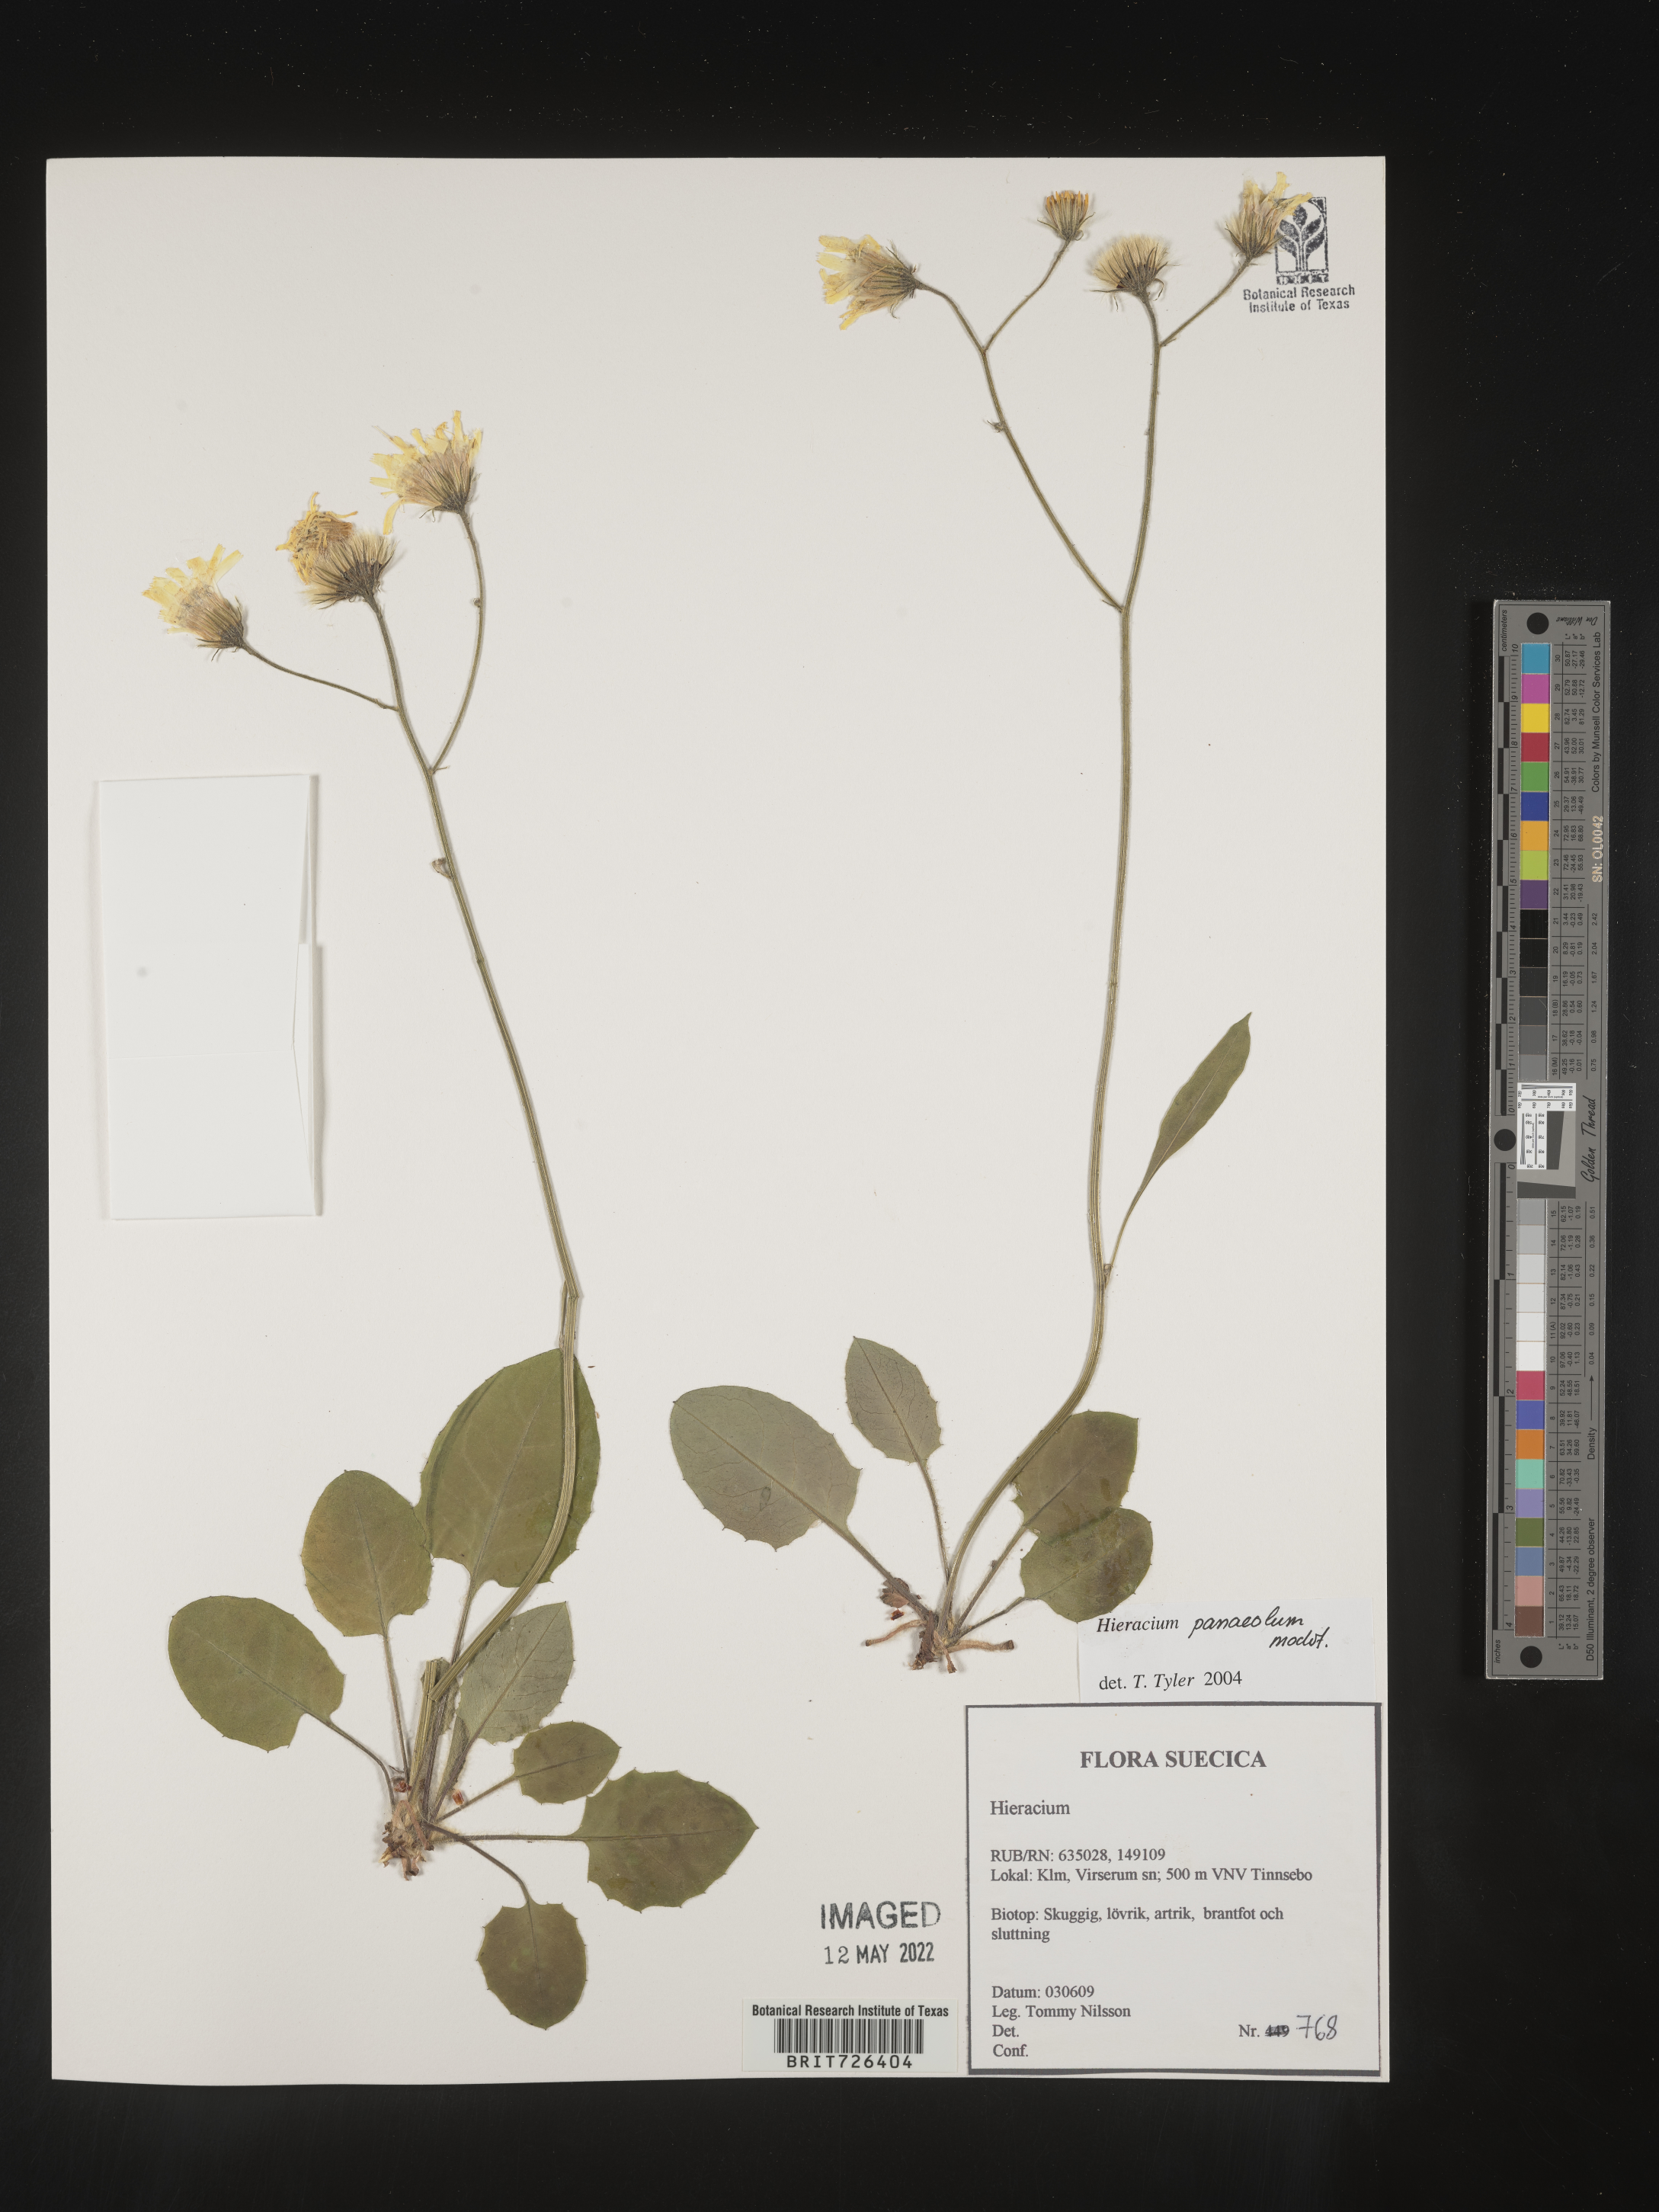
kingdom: Plantae
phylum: Tracheophyta
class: Magnoliopsida
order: Asterales
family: Asteraceae
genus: Hieracium
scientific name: Hieracium
